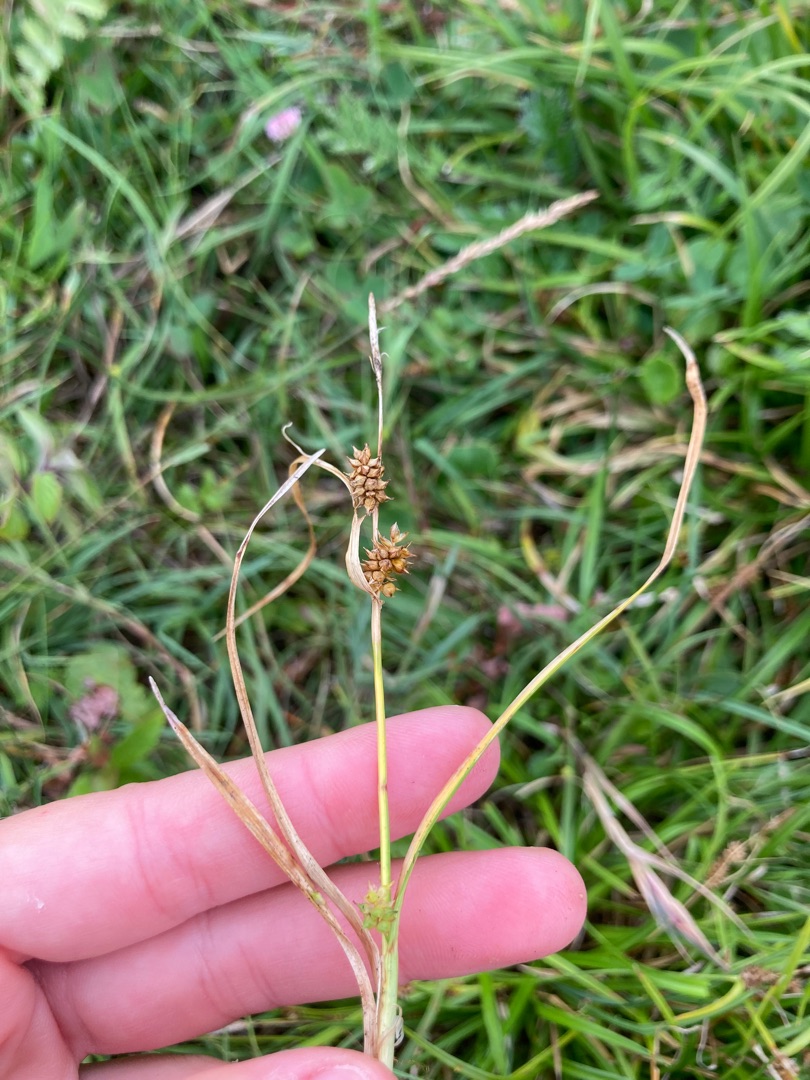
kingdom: Plantae
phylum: Tracheophyta
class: Liliopsida
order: Poales
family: Cyperaceae
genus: Carex
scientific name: Carex demissa
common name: Grøn star
